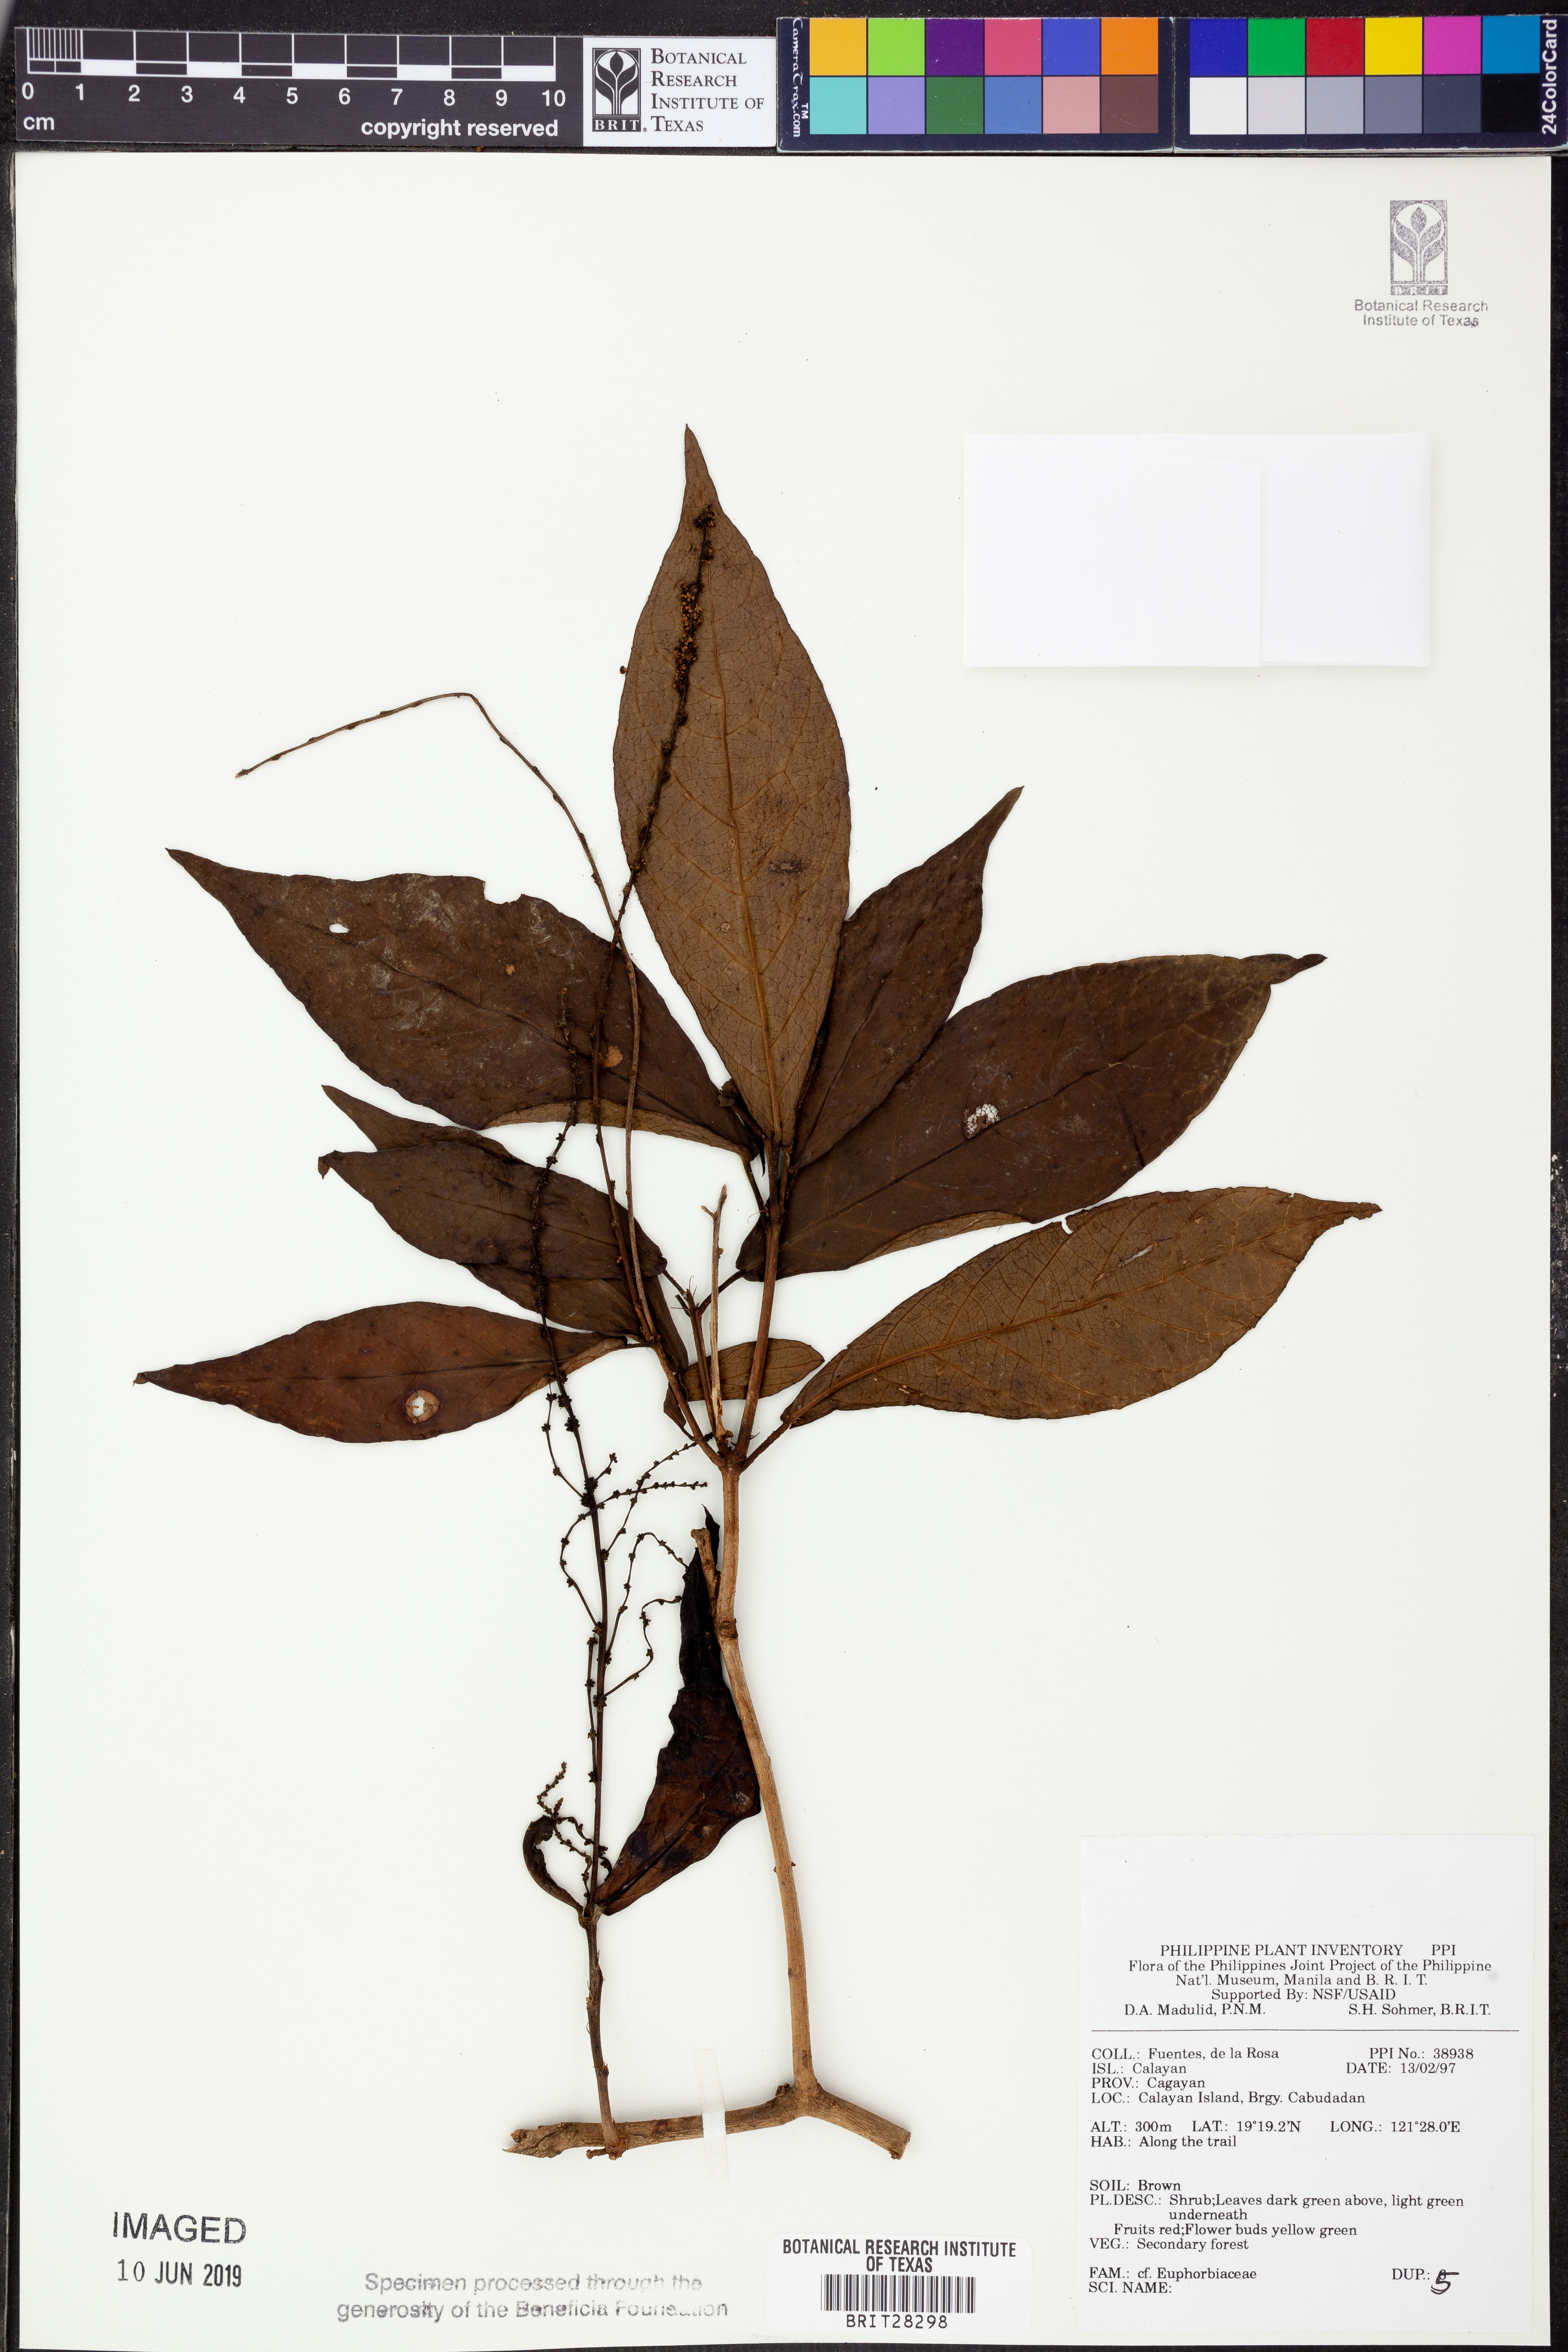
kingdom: Plantae
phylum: Tracheophyta
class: Magnoliopsida
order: Malpighiales
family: Euphorbiaceae
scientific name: Euphorbiaceae
